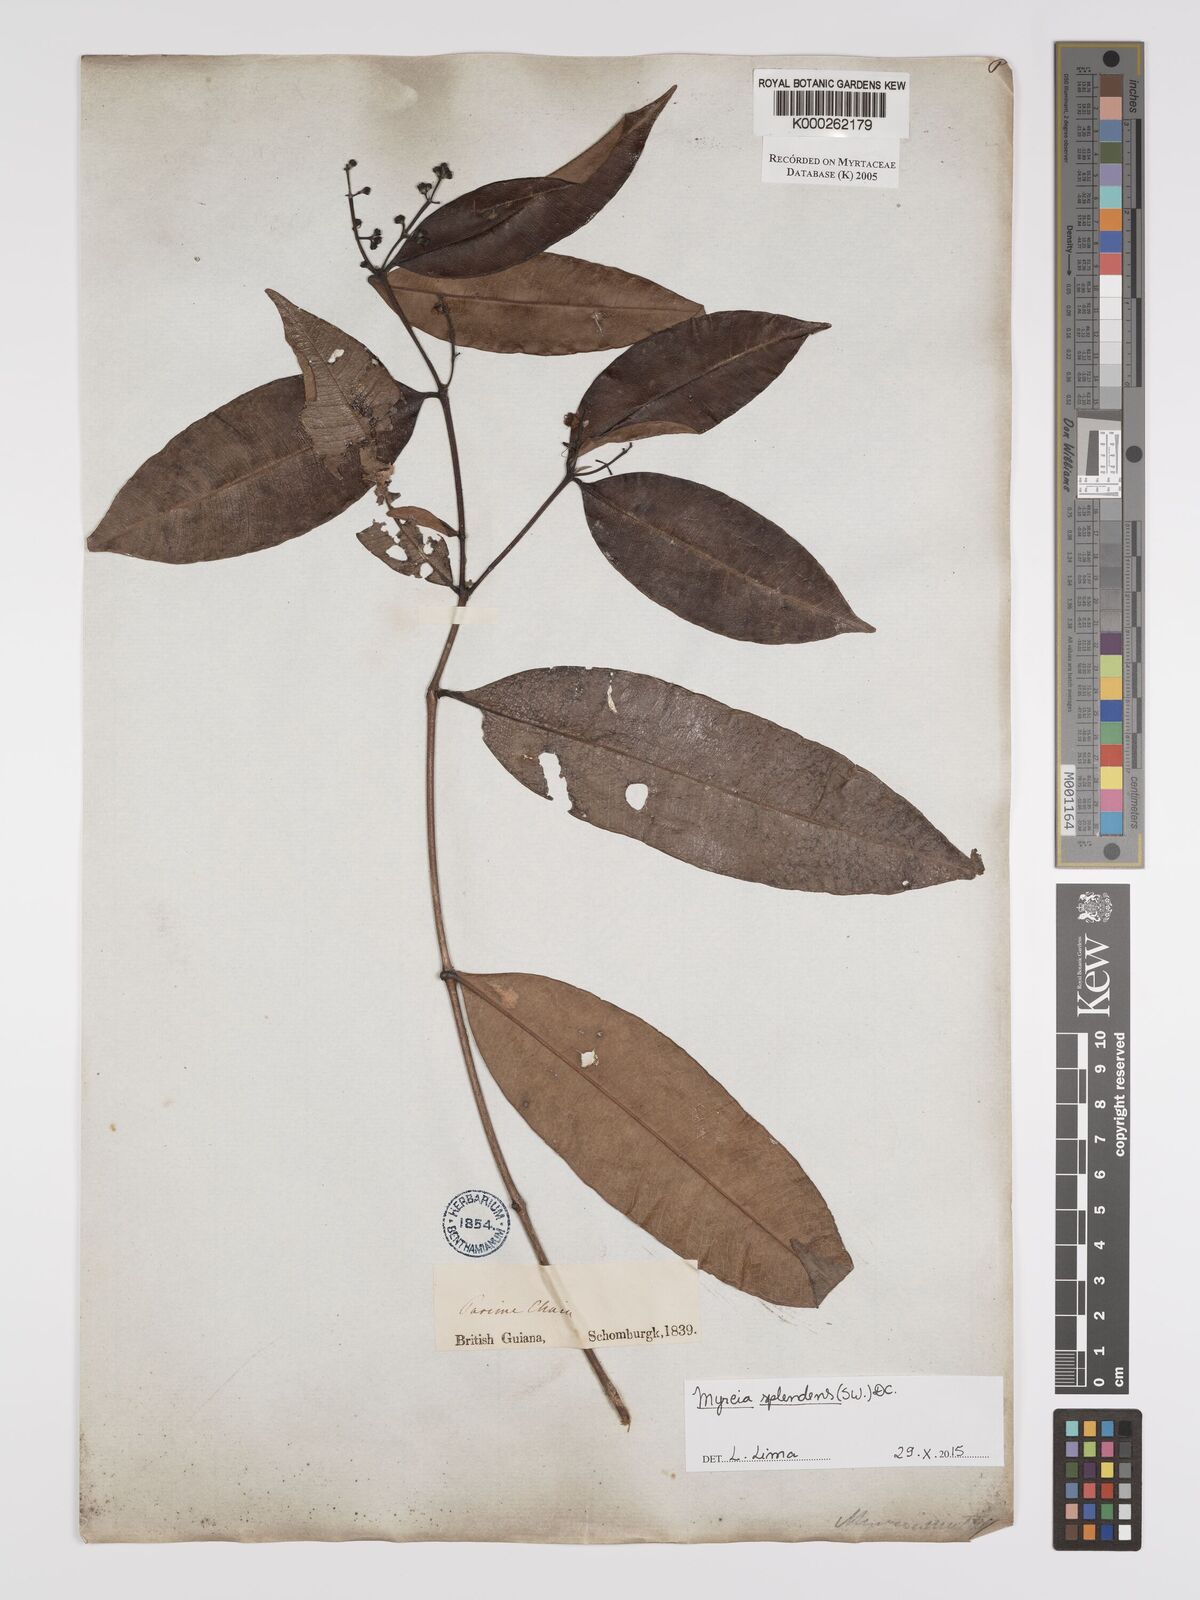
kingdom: Plantae
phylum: Tracheophyta
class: Magnoliopsida
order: Myrtales
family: Myrtaceae
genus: Myrcia
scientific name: Myrcia splendens
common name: Surinam cherry
